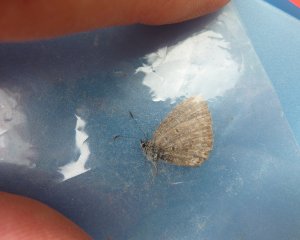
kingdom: Animalia
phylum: Arthropoda
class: Insecta
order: Lepidoptera
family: Lycaenidae
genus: Cyaniris
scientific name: Cyaniris neglecta
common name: Summer Azure
